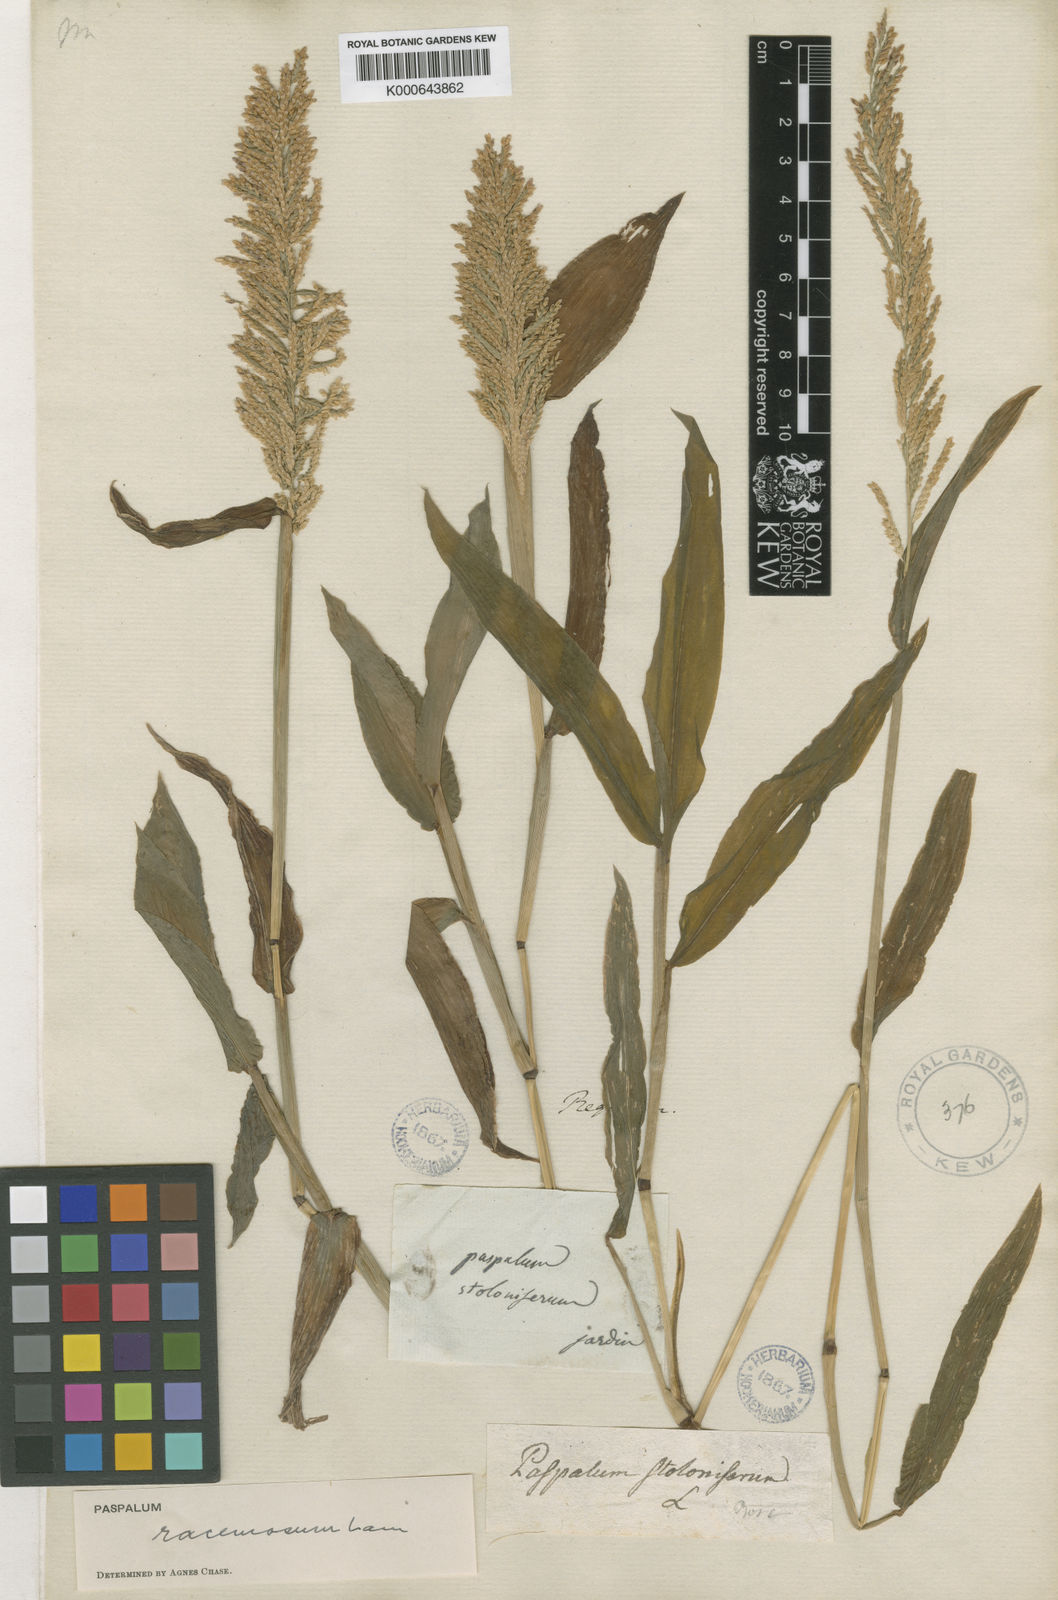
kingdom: Plantae
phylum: Tracheophyta
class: Liliopsida
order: Poales
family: Poaceae
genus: Paspalum
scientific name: Paspalum racemosum
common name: Peruvian paspalum
